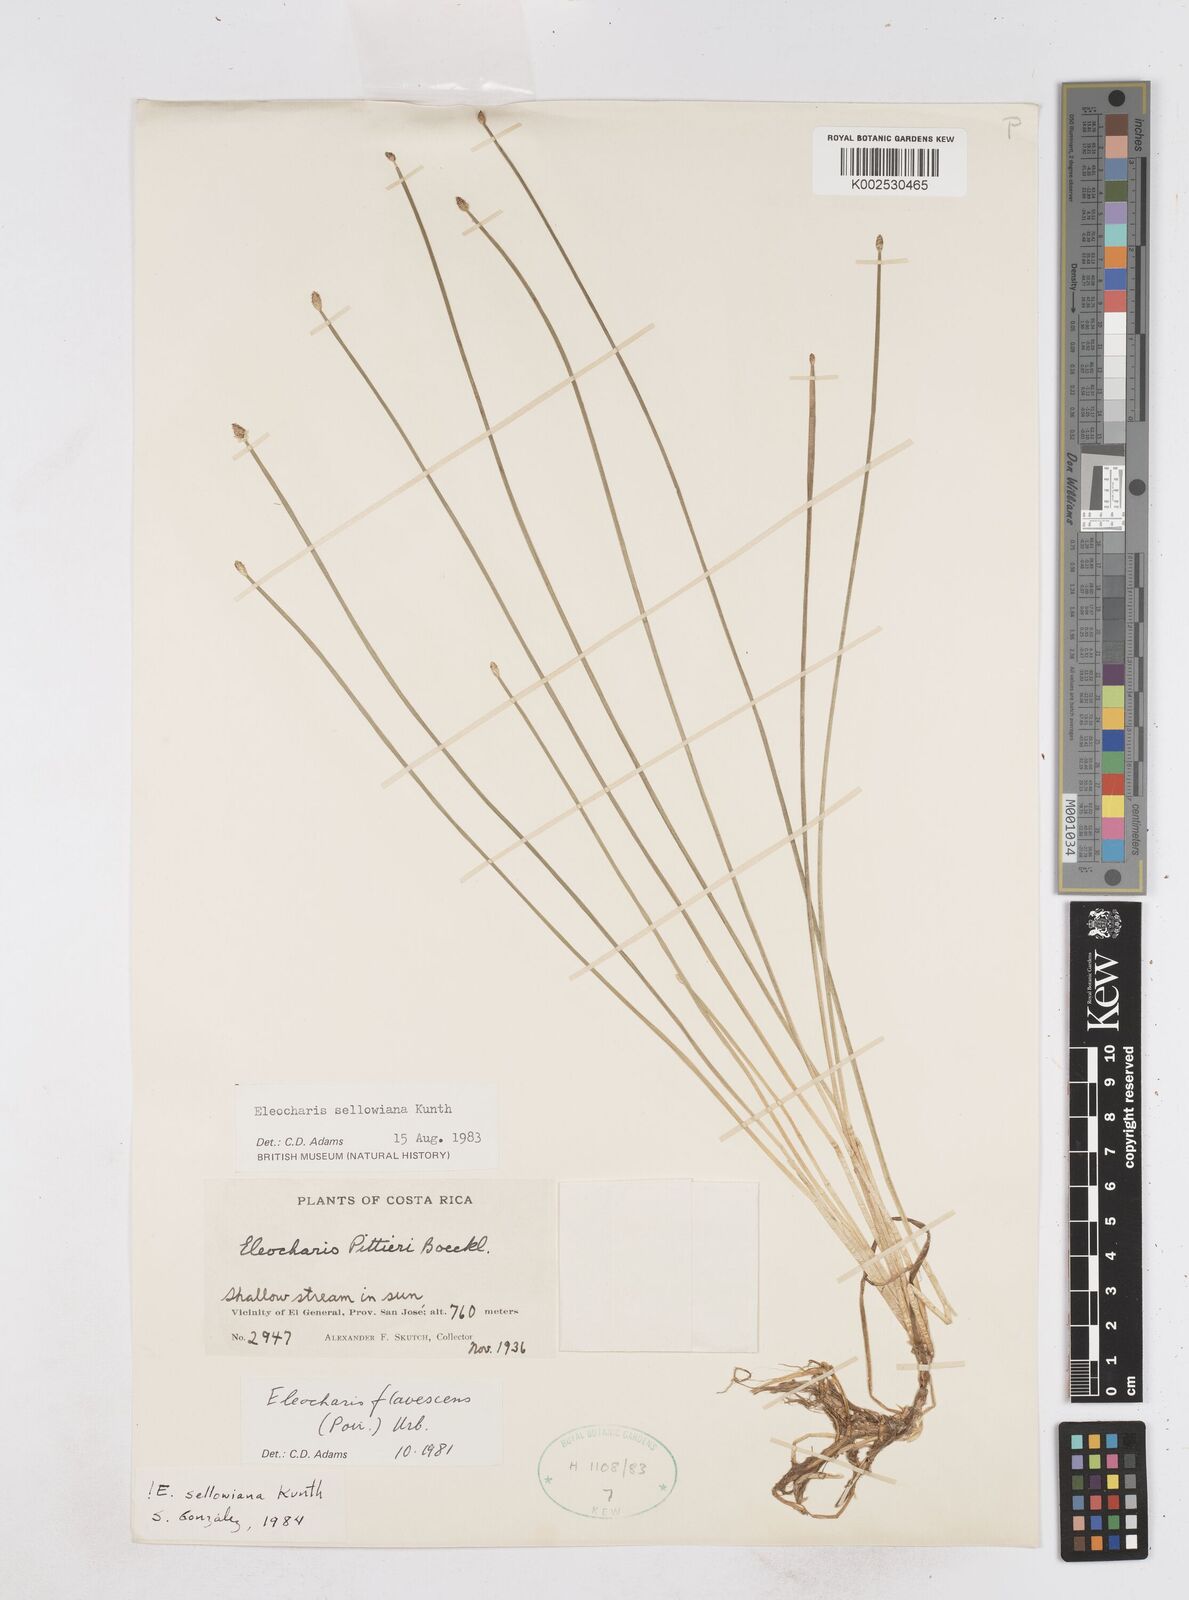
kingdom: Plantae
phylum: Tracheophyta
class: Liliopsida
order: Poales
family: Cyperaceae
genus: Eleocharis
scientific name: Eleocharis sellowiana
